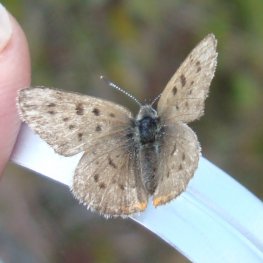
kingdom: Animalia
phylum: Arthropoda
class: Insecta
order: Lepidoptera
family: Sesiidae
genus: Sesia
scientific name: Sesia Lycaena epixanthe
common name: Bog Copper
